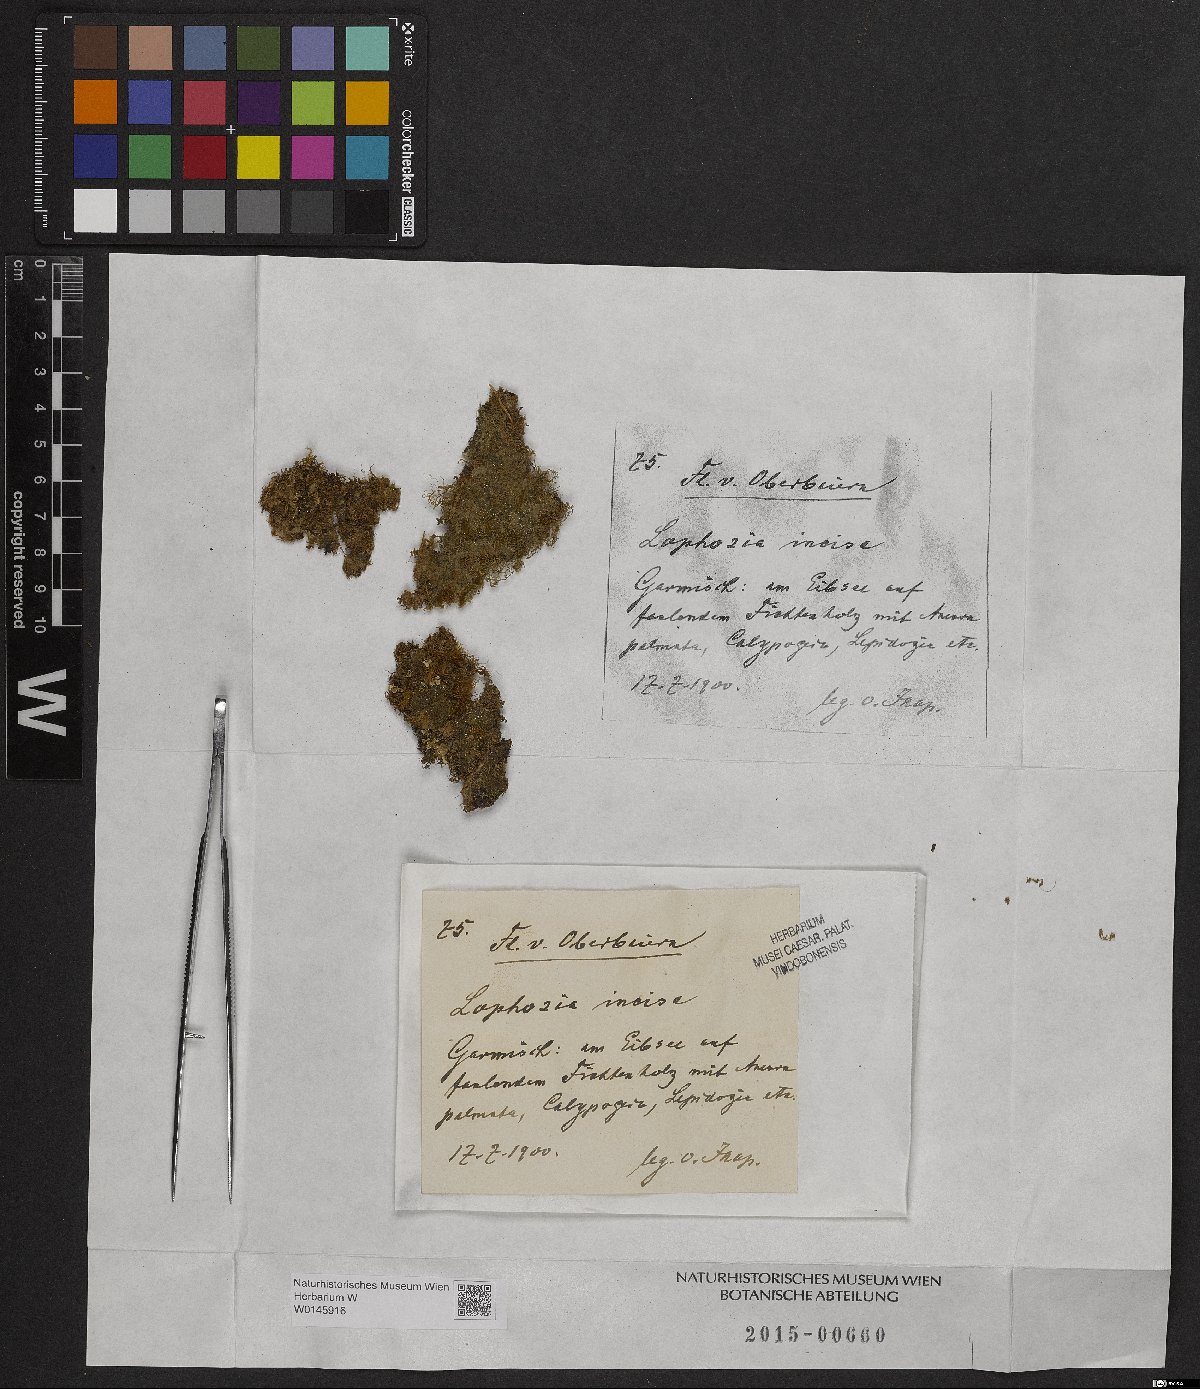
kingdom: Plantae
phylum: Marchantiophyta
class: Jungermanniopsida
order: Jungermanniales
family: Scapaniaceae
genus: Schistochilopsis
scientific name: Schistochilopsis incisa
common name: Jagged notchwort
